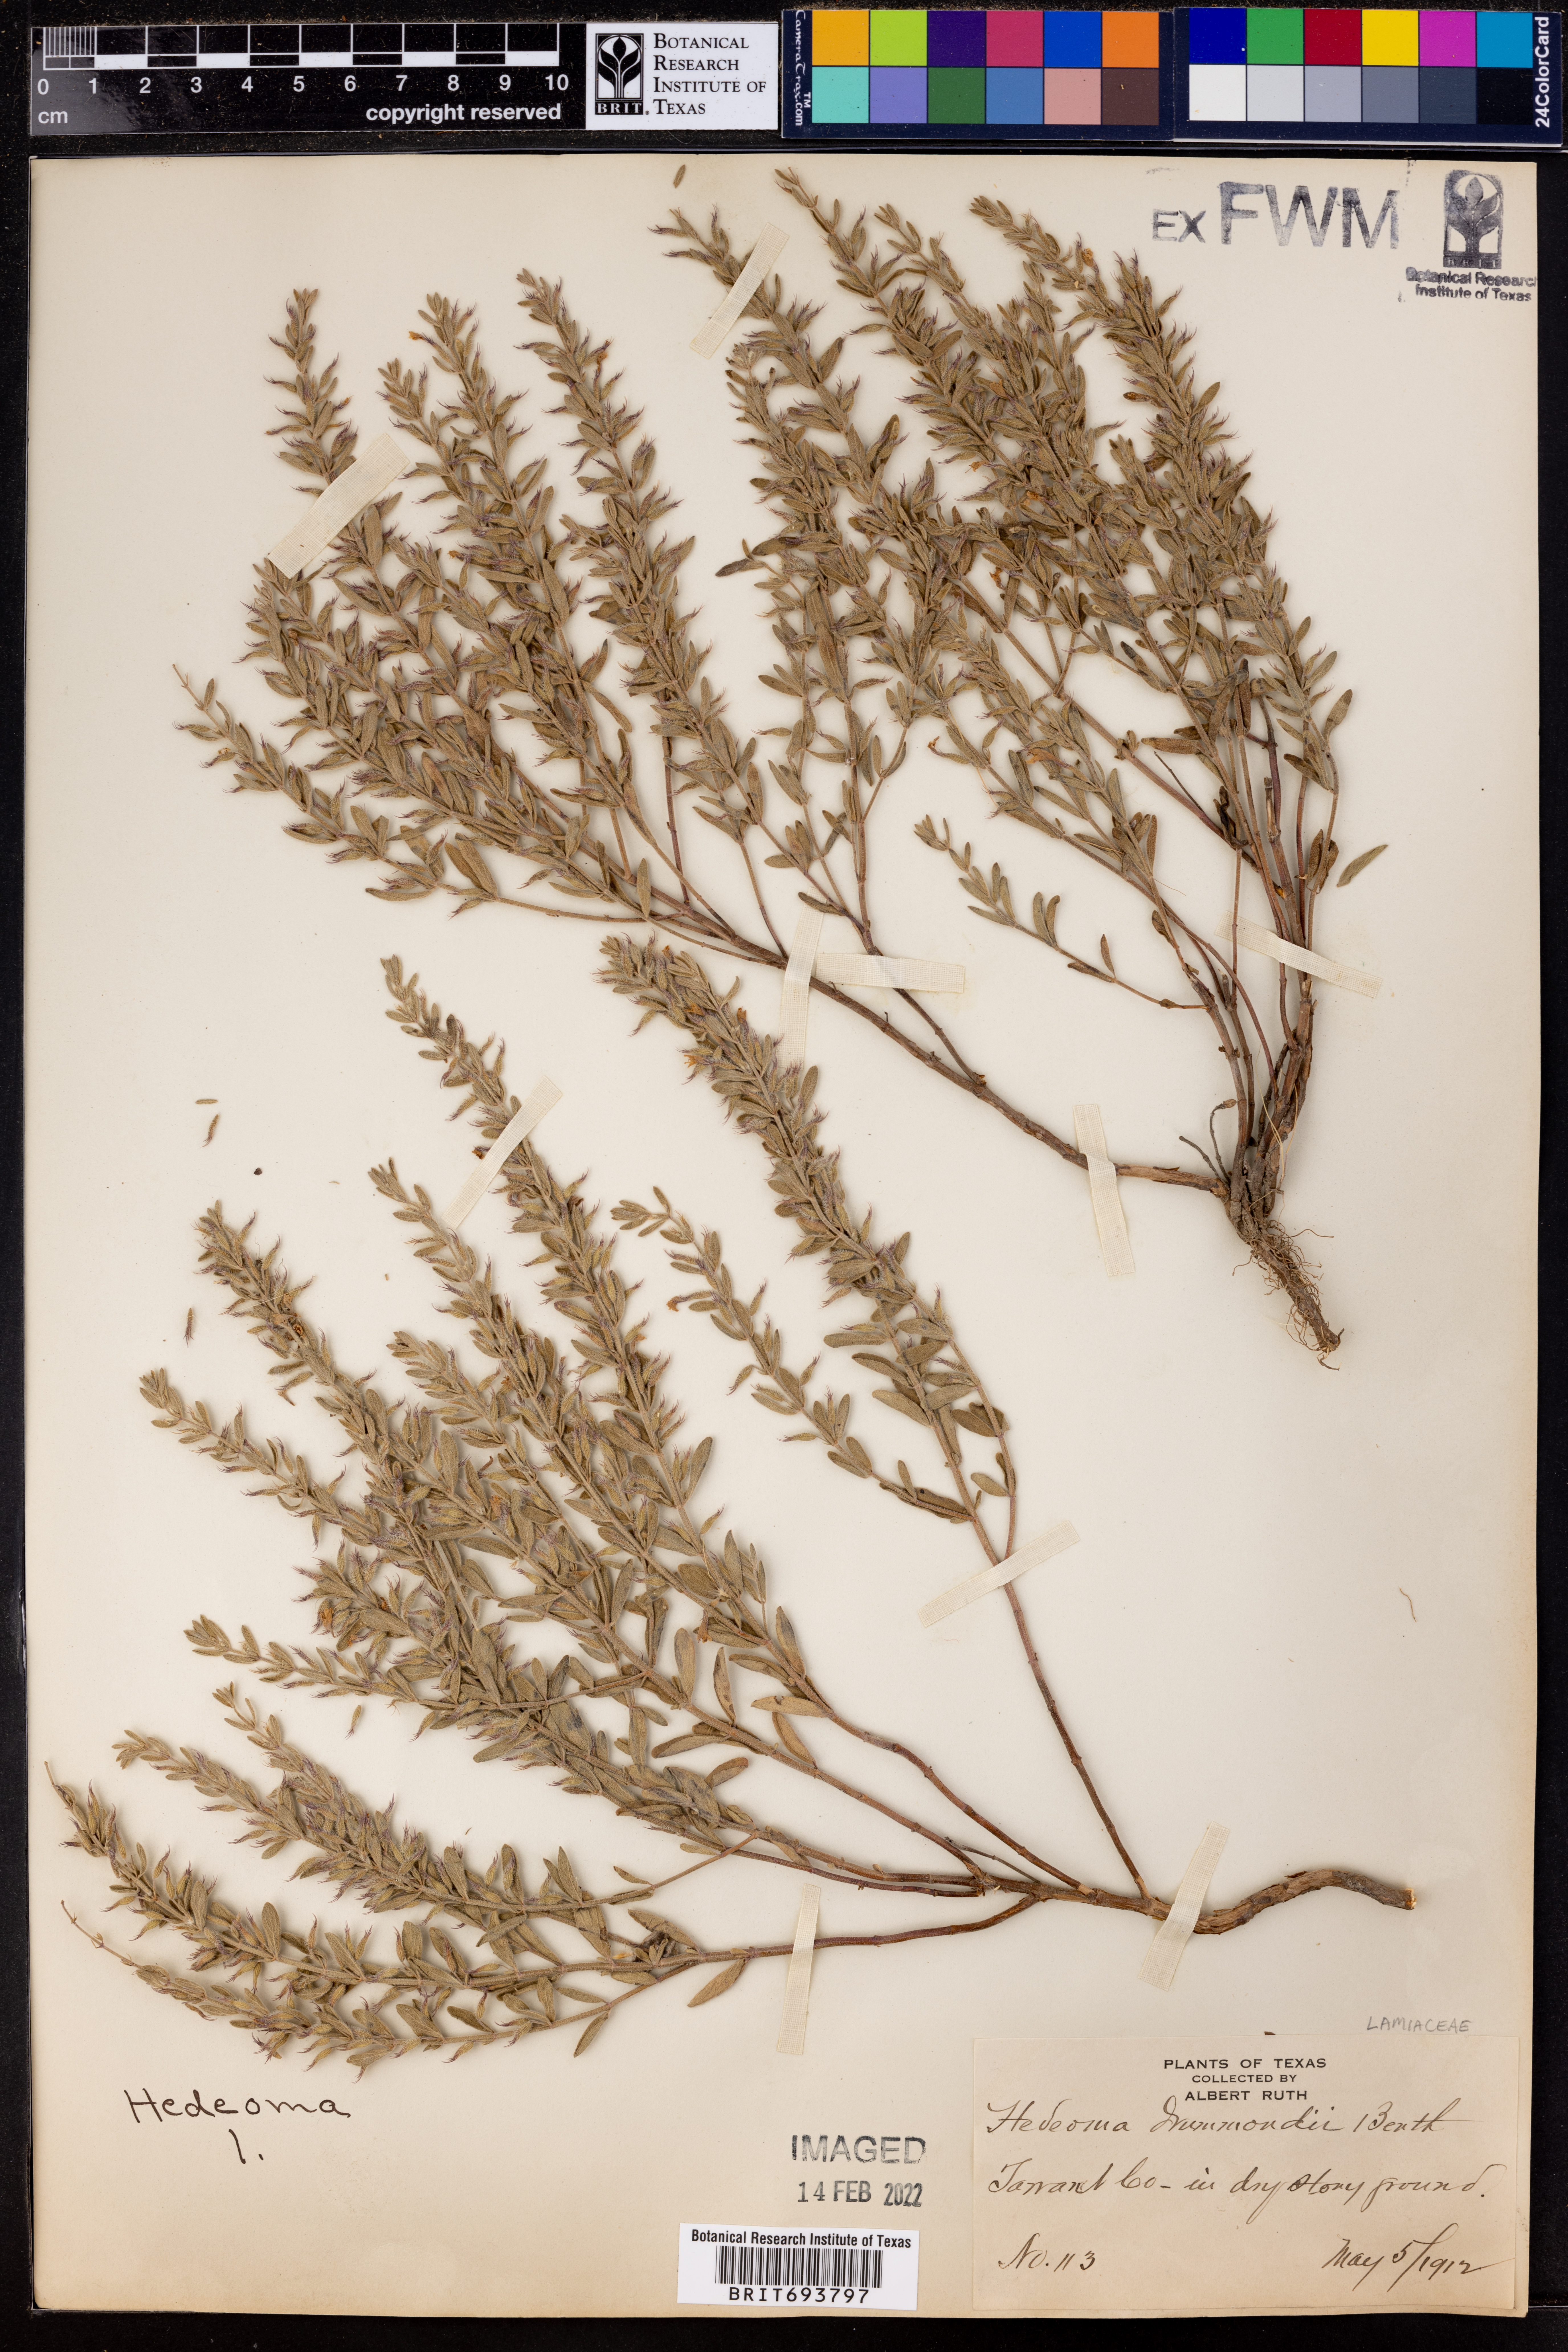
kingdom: Plantae
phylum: Tracheophyta
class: Magnoliopsida
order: Lamiales
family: Lamiaceae
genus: Hedeoma
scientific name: Hedeoma drummondii
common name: New mexico pennyroyal
